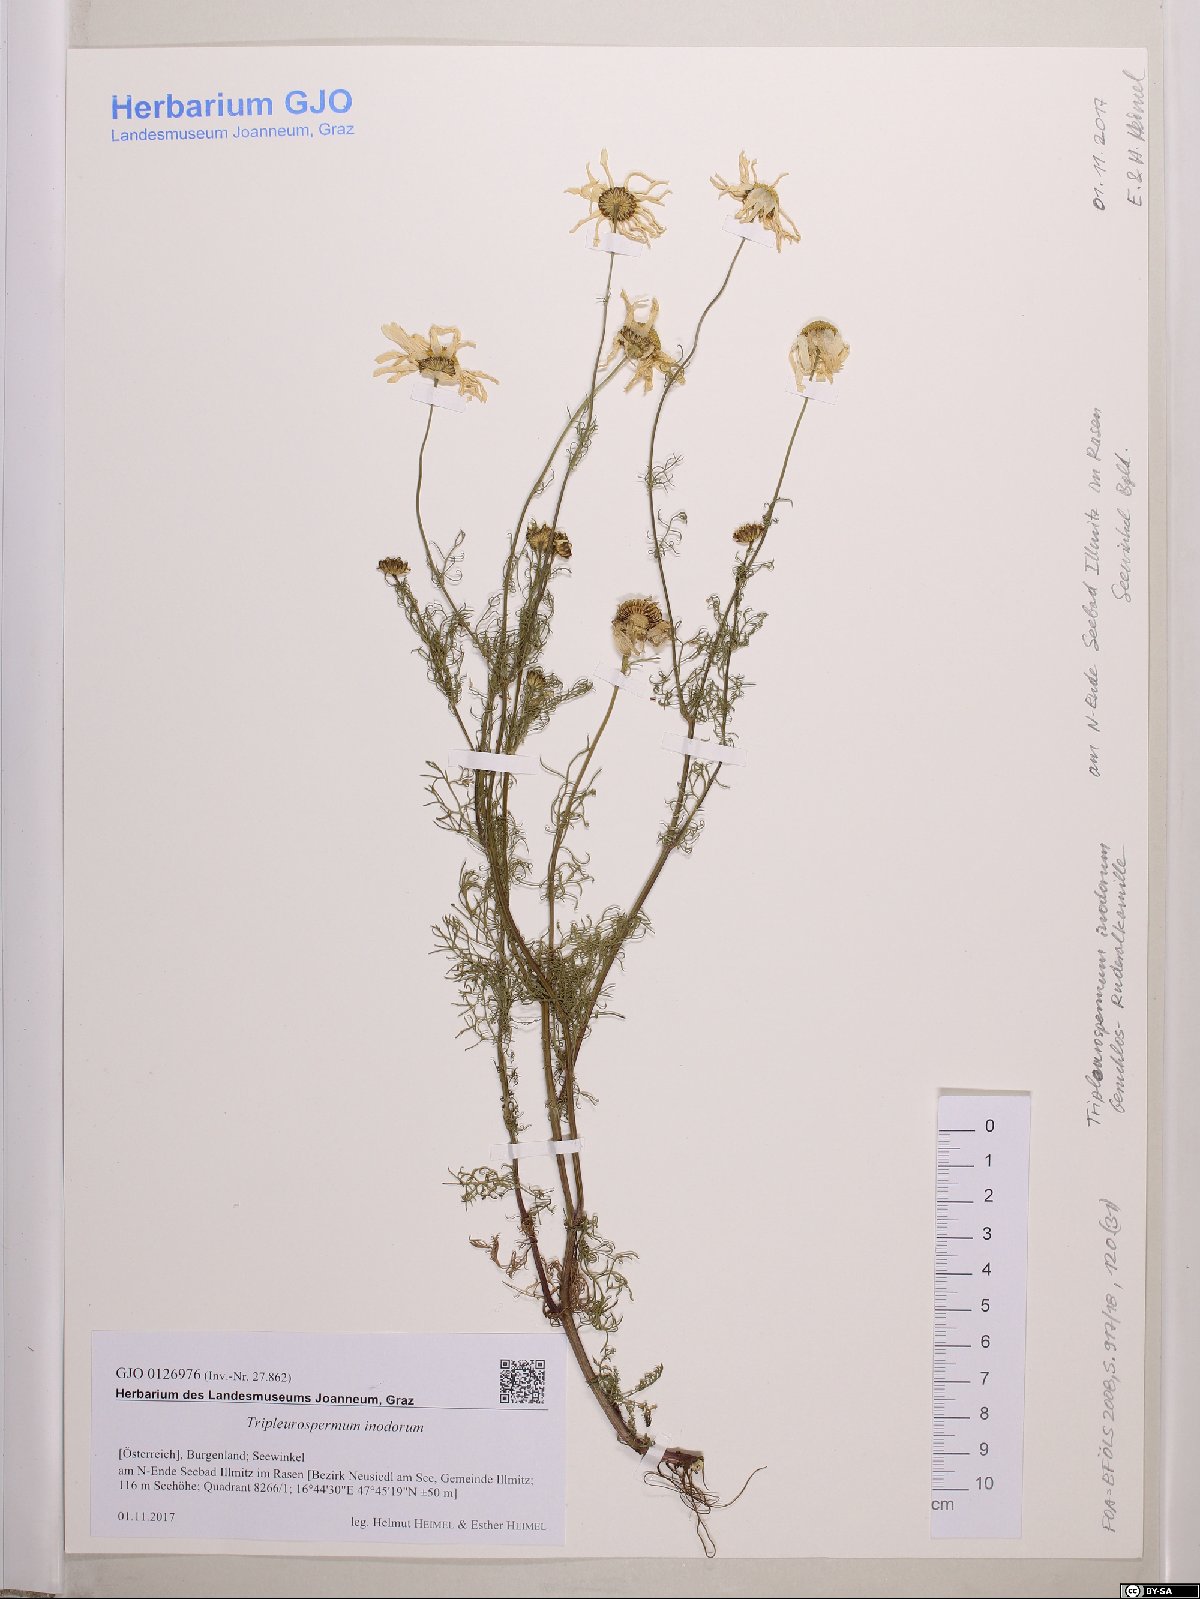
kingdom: Plantae
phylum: Tracheophyta
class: Magnoliopsida
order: Asterales
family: Asteraceae
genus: Tripleurospermum
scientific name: Tripleurospermum inodorum
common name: Scentless mayweed
